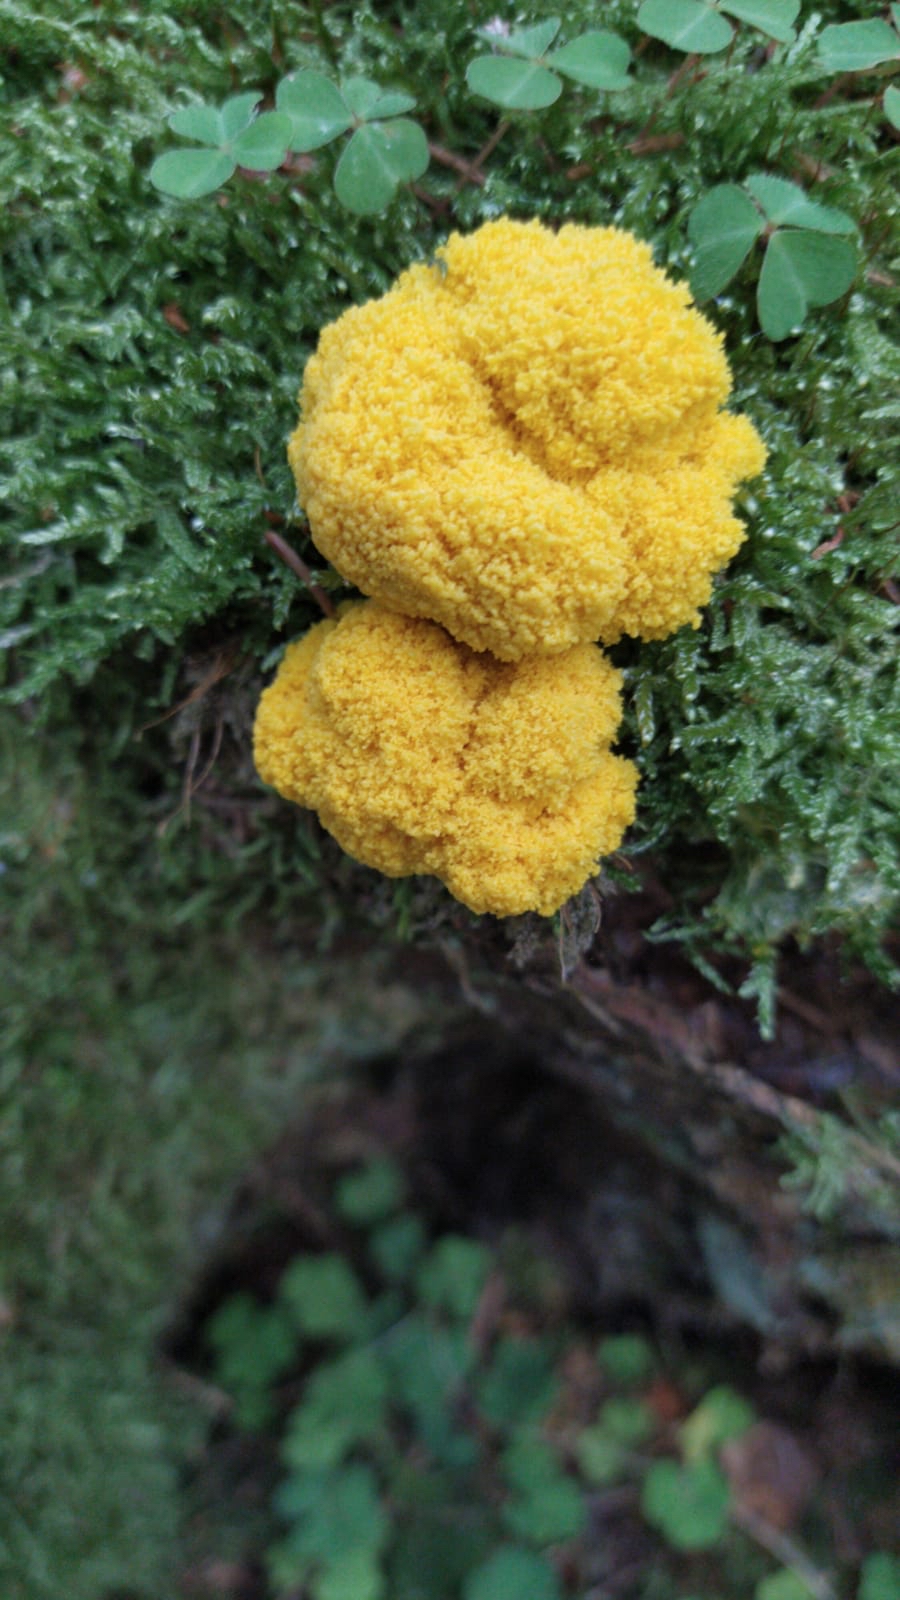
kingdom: Protozoa
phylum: Mycetozoa
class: Myxomycetes
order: Physarales
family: Physaraceae
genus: Fuligo
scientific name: Fuligo septica
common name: gul troldsmør
